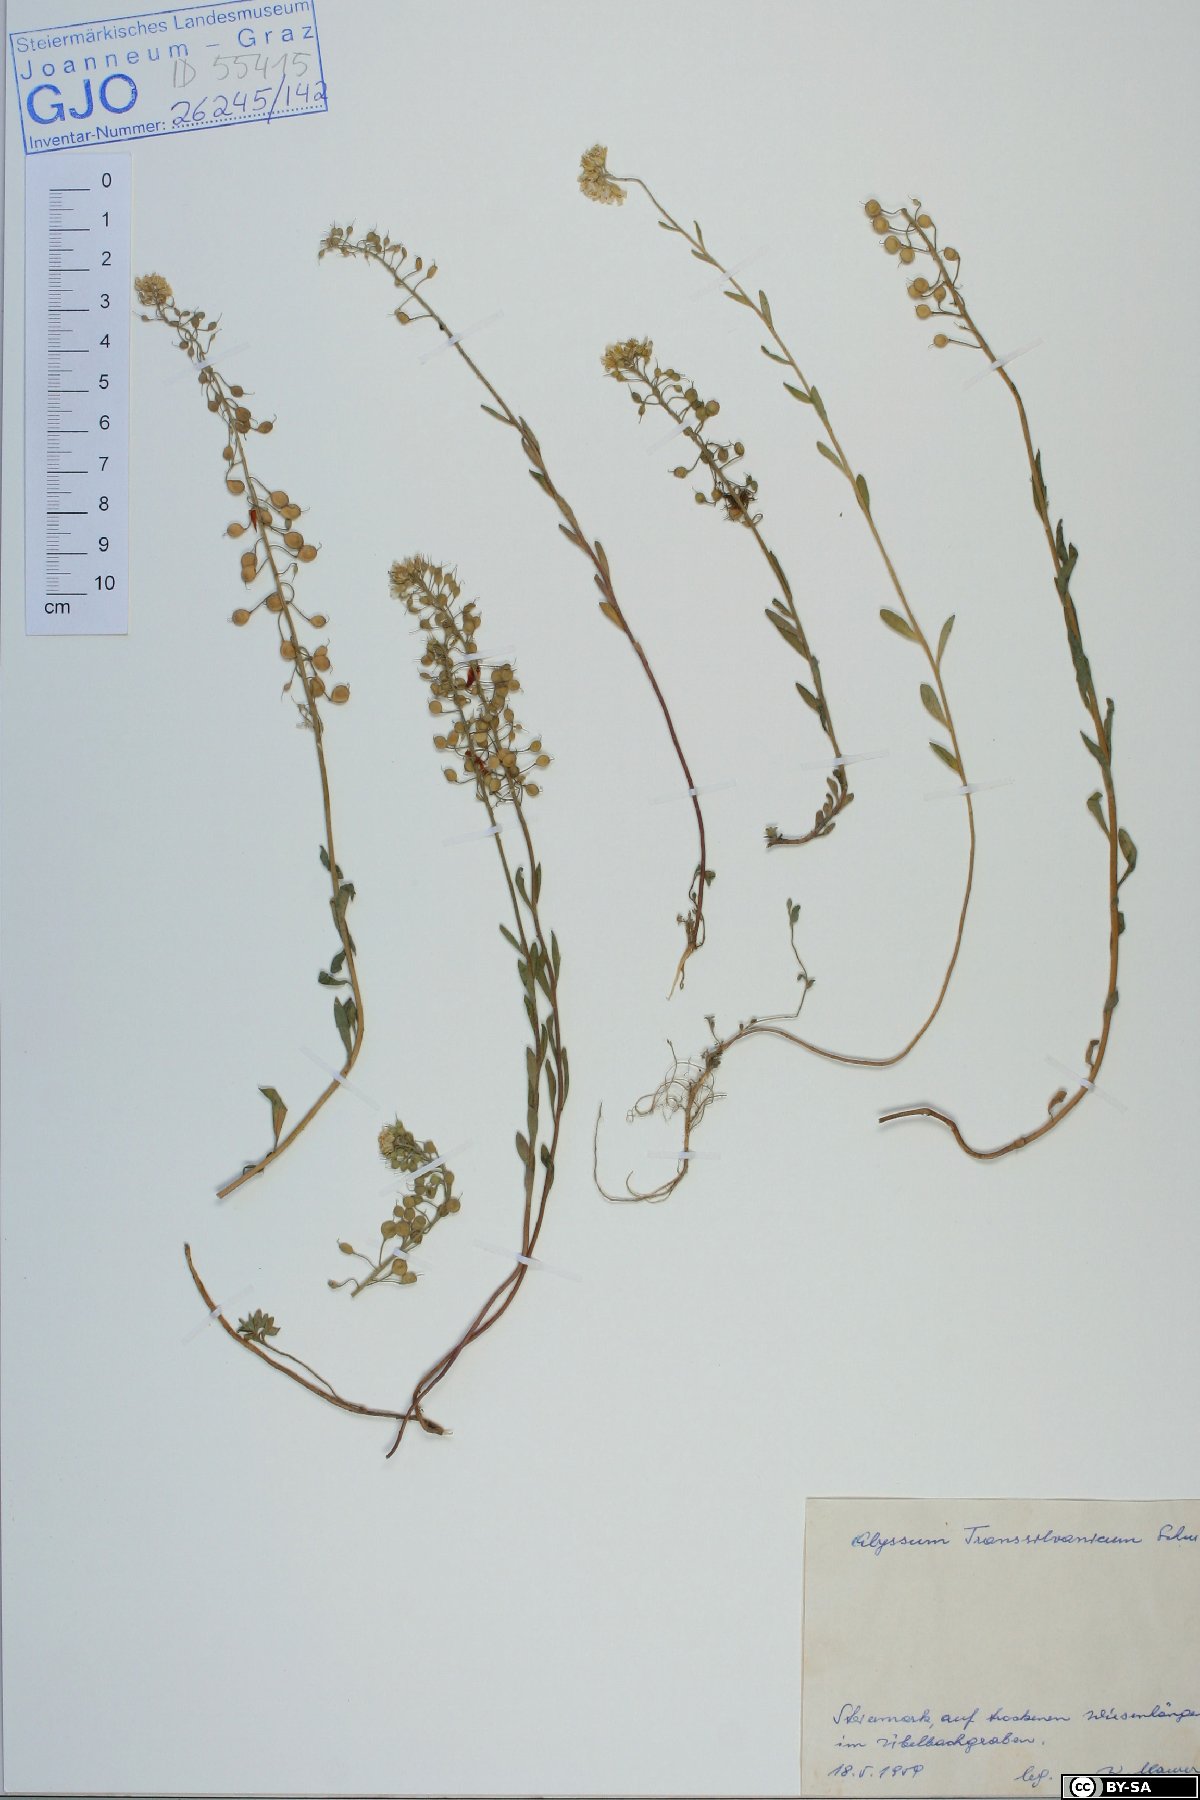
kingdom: Plantae
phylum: Tracheophyta
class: Magnoliopsida
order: Brassicales
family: Brassicaceae
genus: Alyssum
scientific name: Alyssum repens
